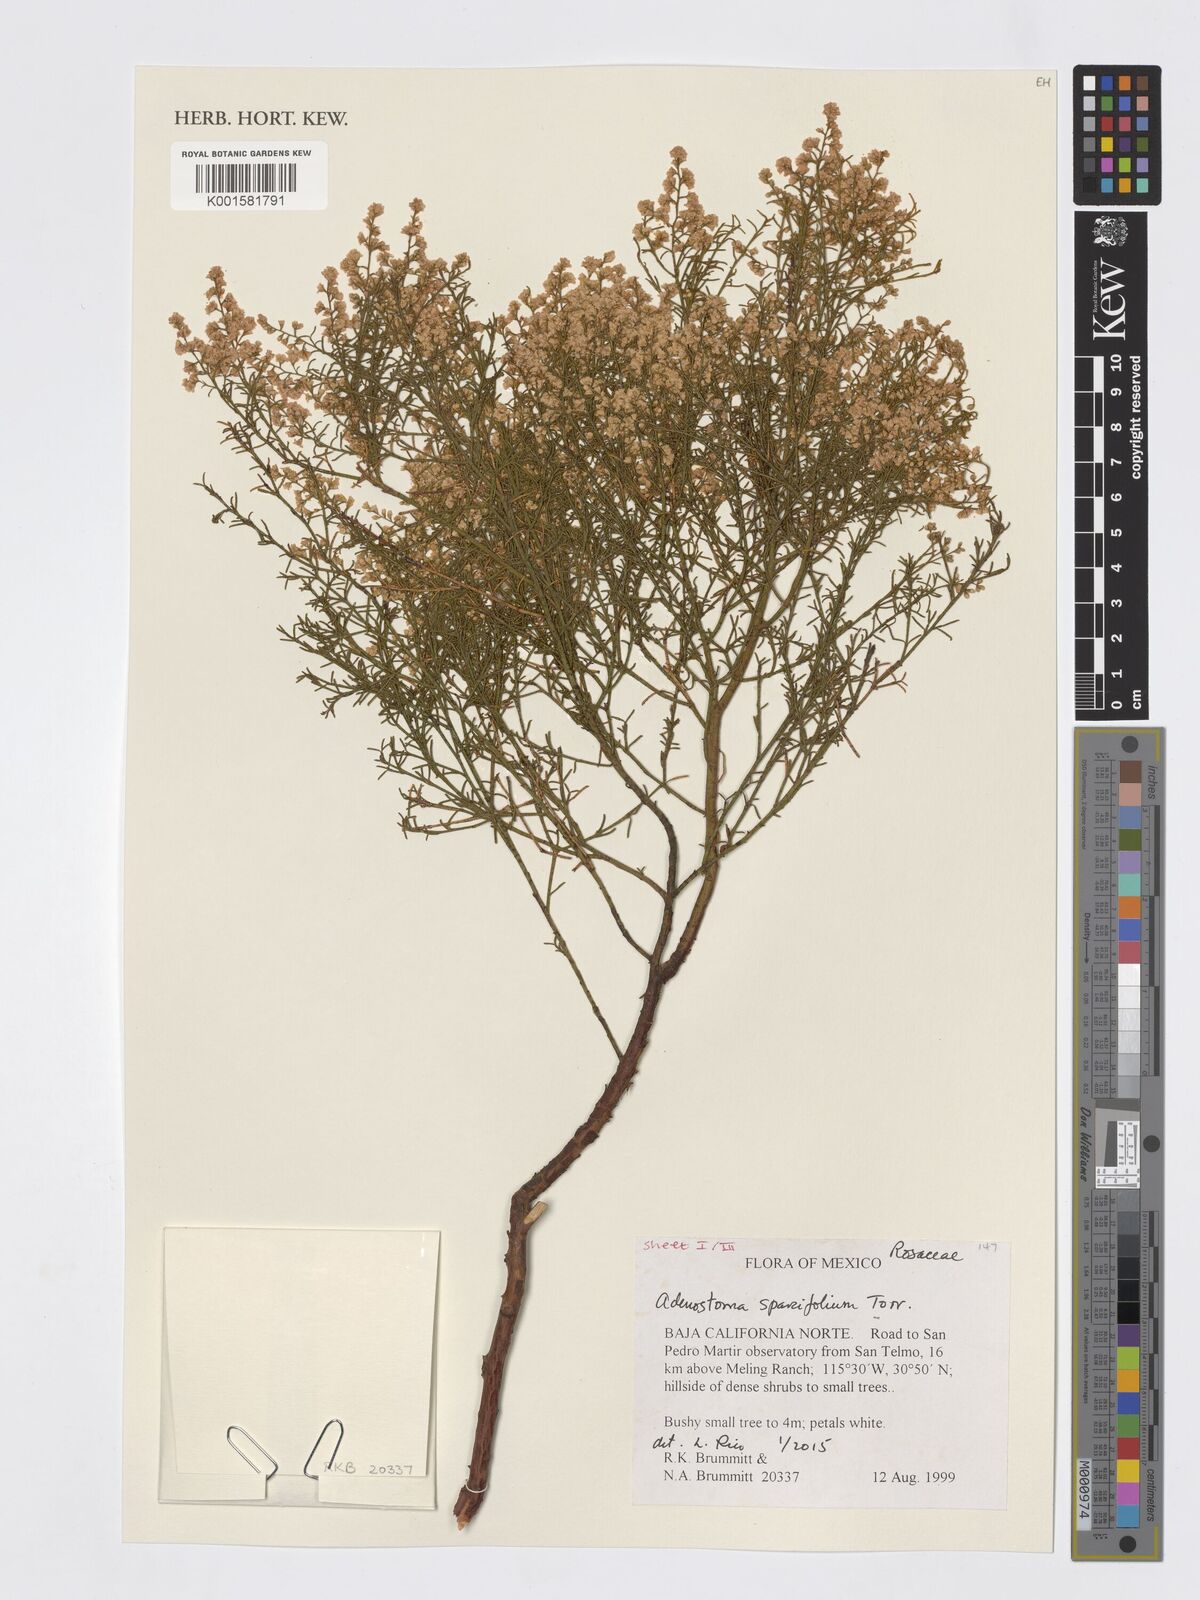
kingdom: Plantae
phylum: Tracheophyta
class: Magnoliopsida
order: Rosales
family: Rosaceae
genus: Adenostoma
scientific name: Adenostoma sparsifolium
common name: Red shank
